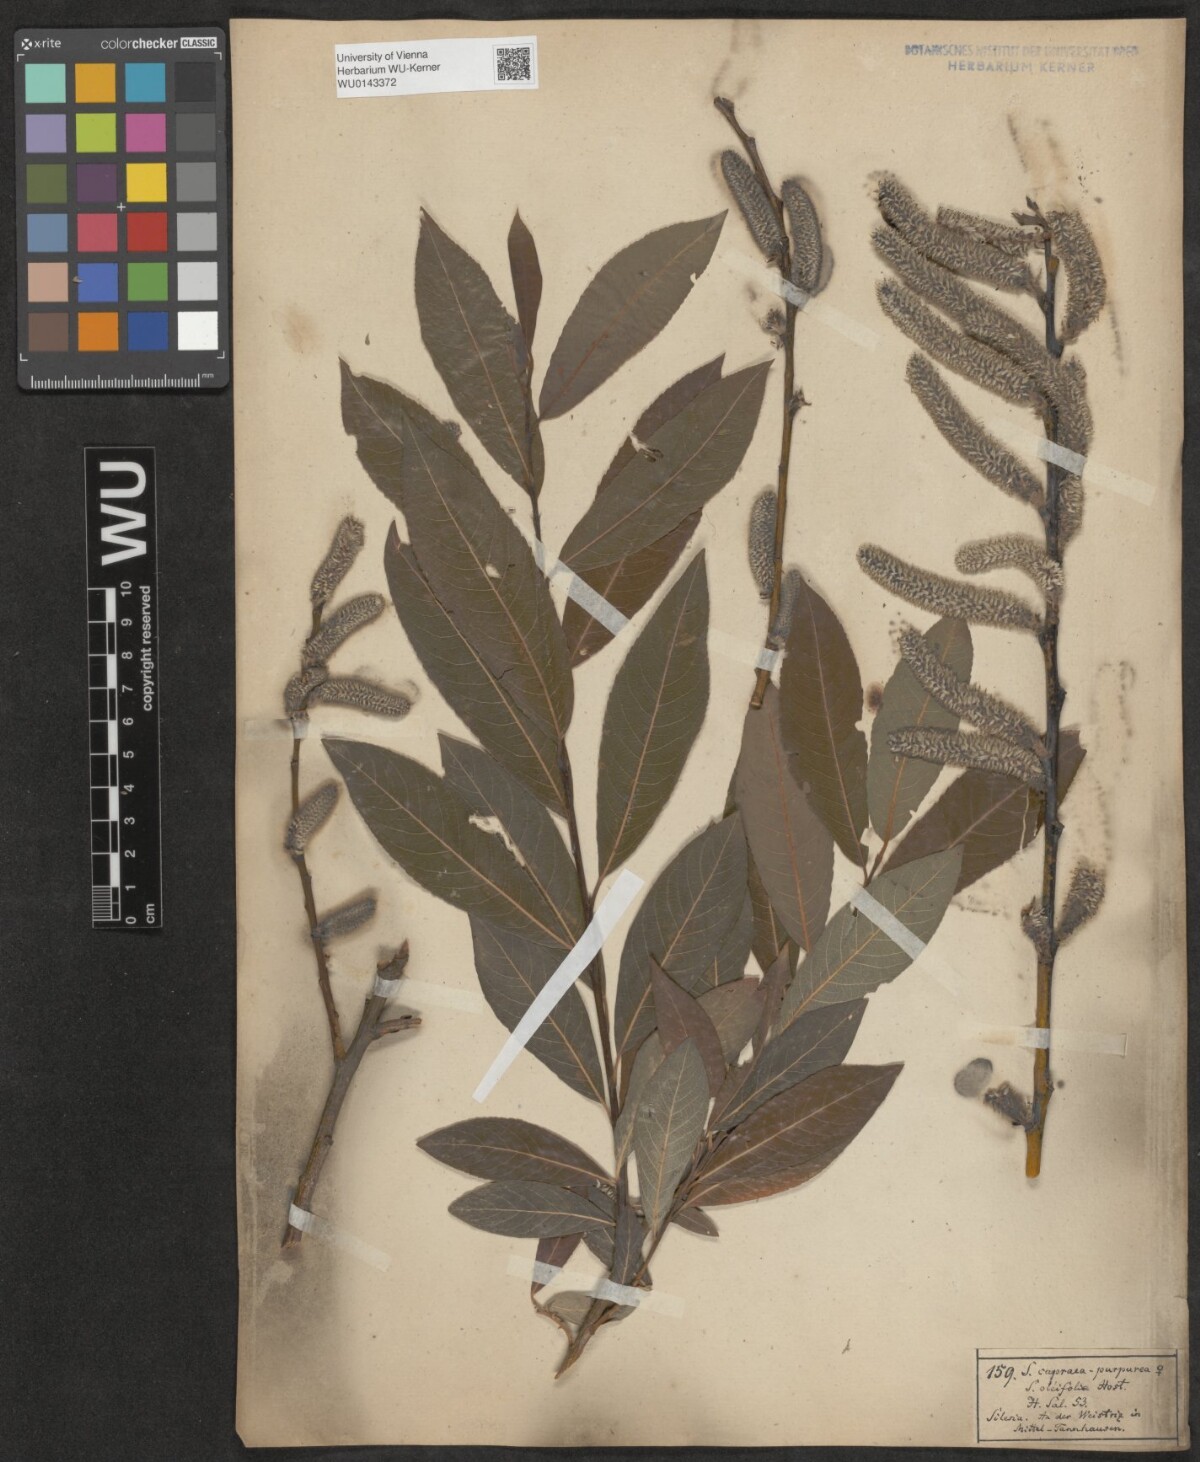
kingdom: Plantae
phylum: Tracheophyta
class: Magnoliopsida
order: Malpighiales
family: Salicaceae
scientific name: Salicaceae
